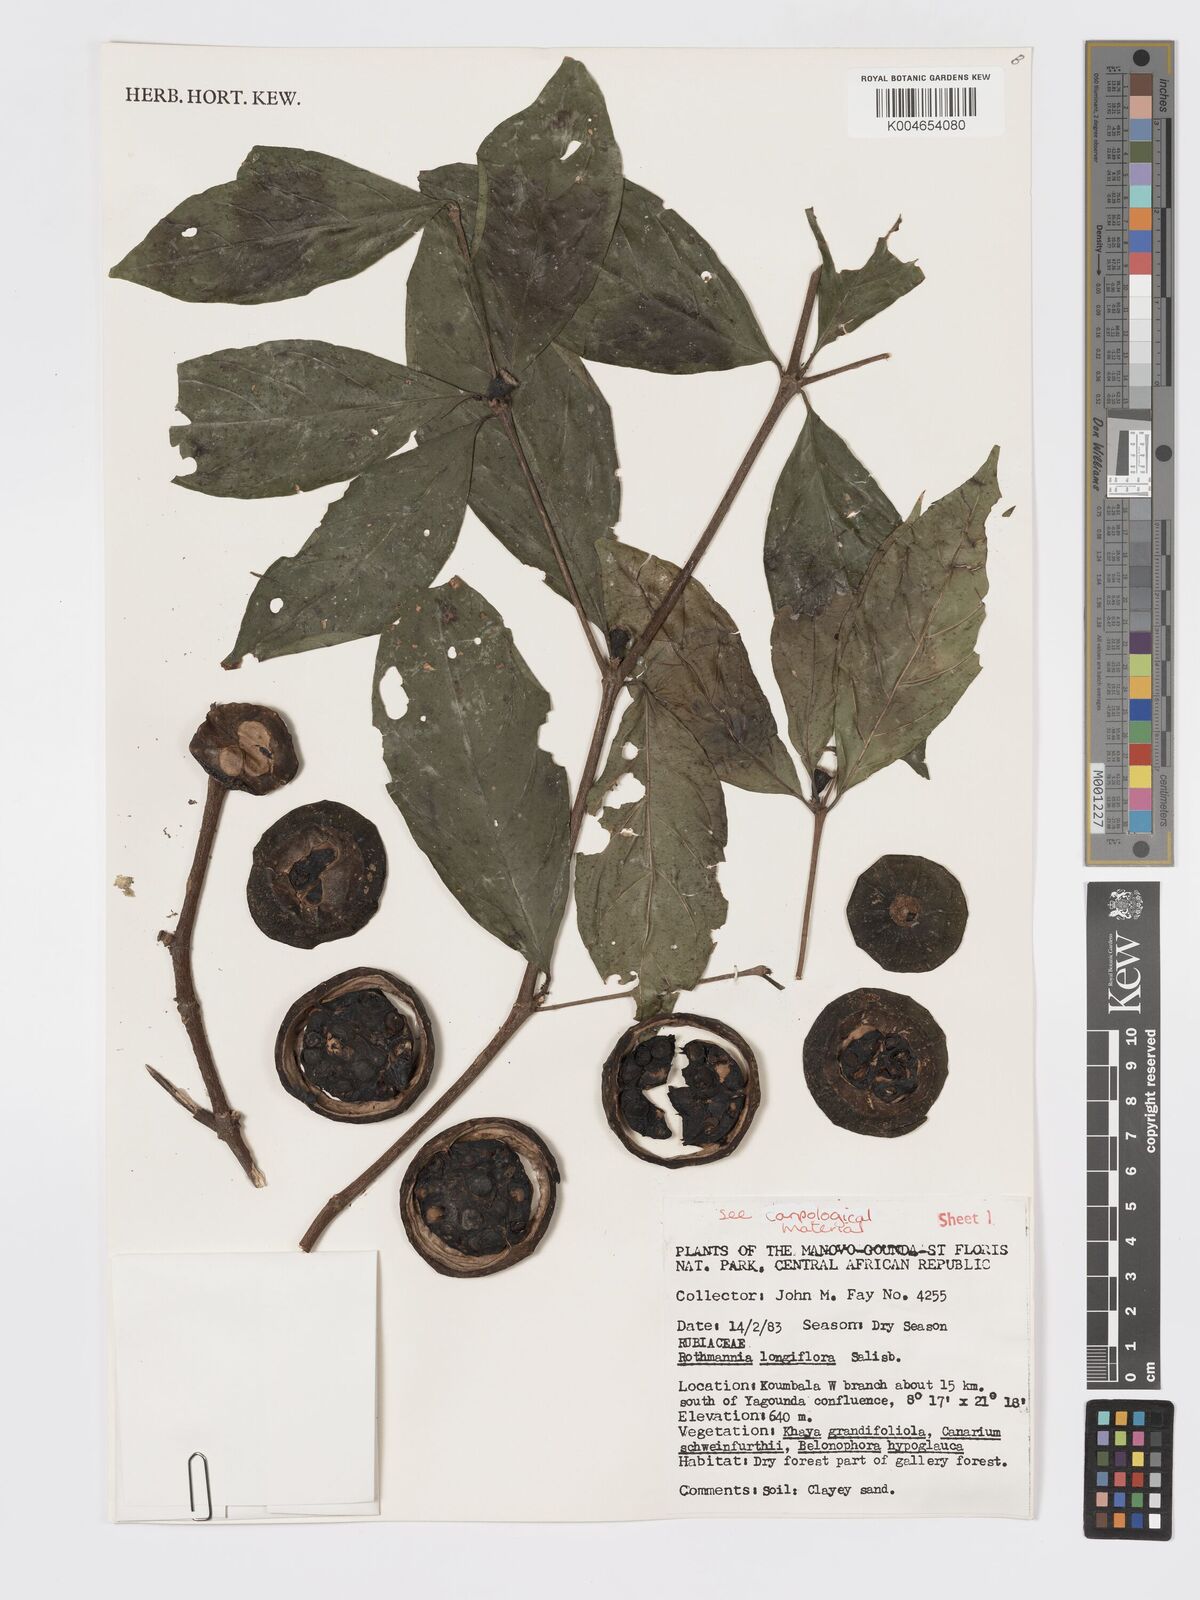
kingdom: Plantae
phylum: Tracheophyta
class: Magnoliopsida
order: Gentianales
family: Rubiaceae
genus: Rothmannia
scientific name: Rothmannia longiflora
